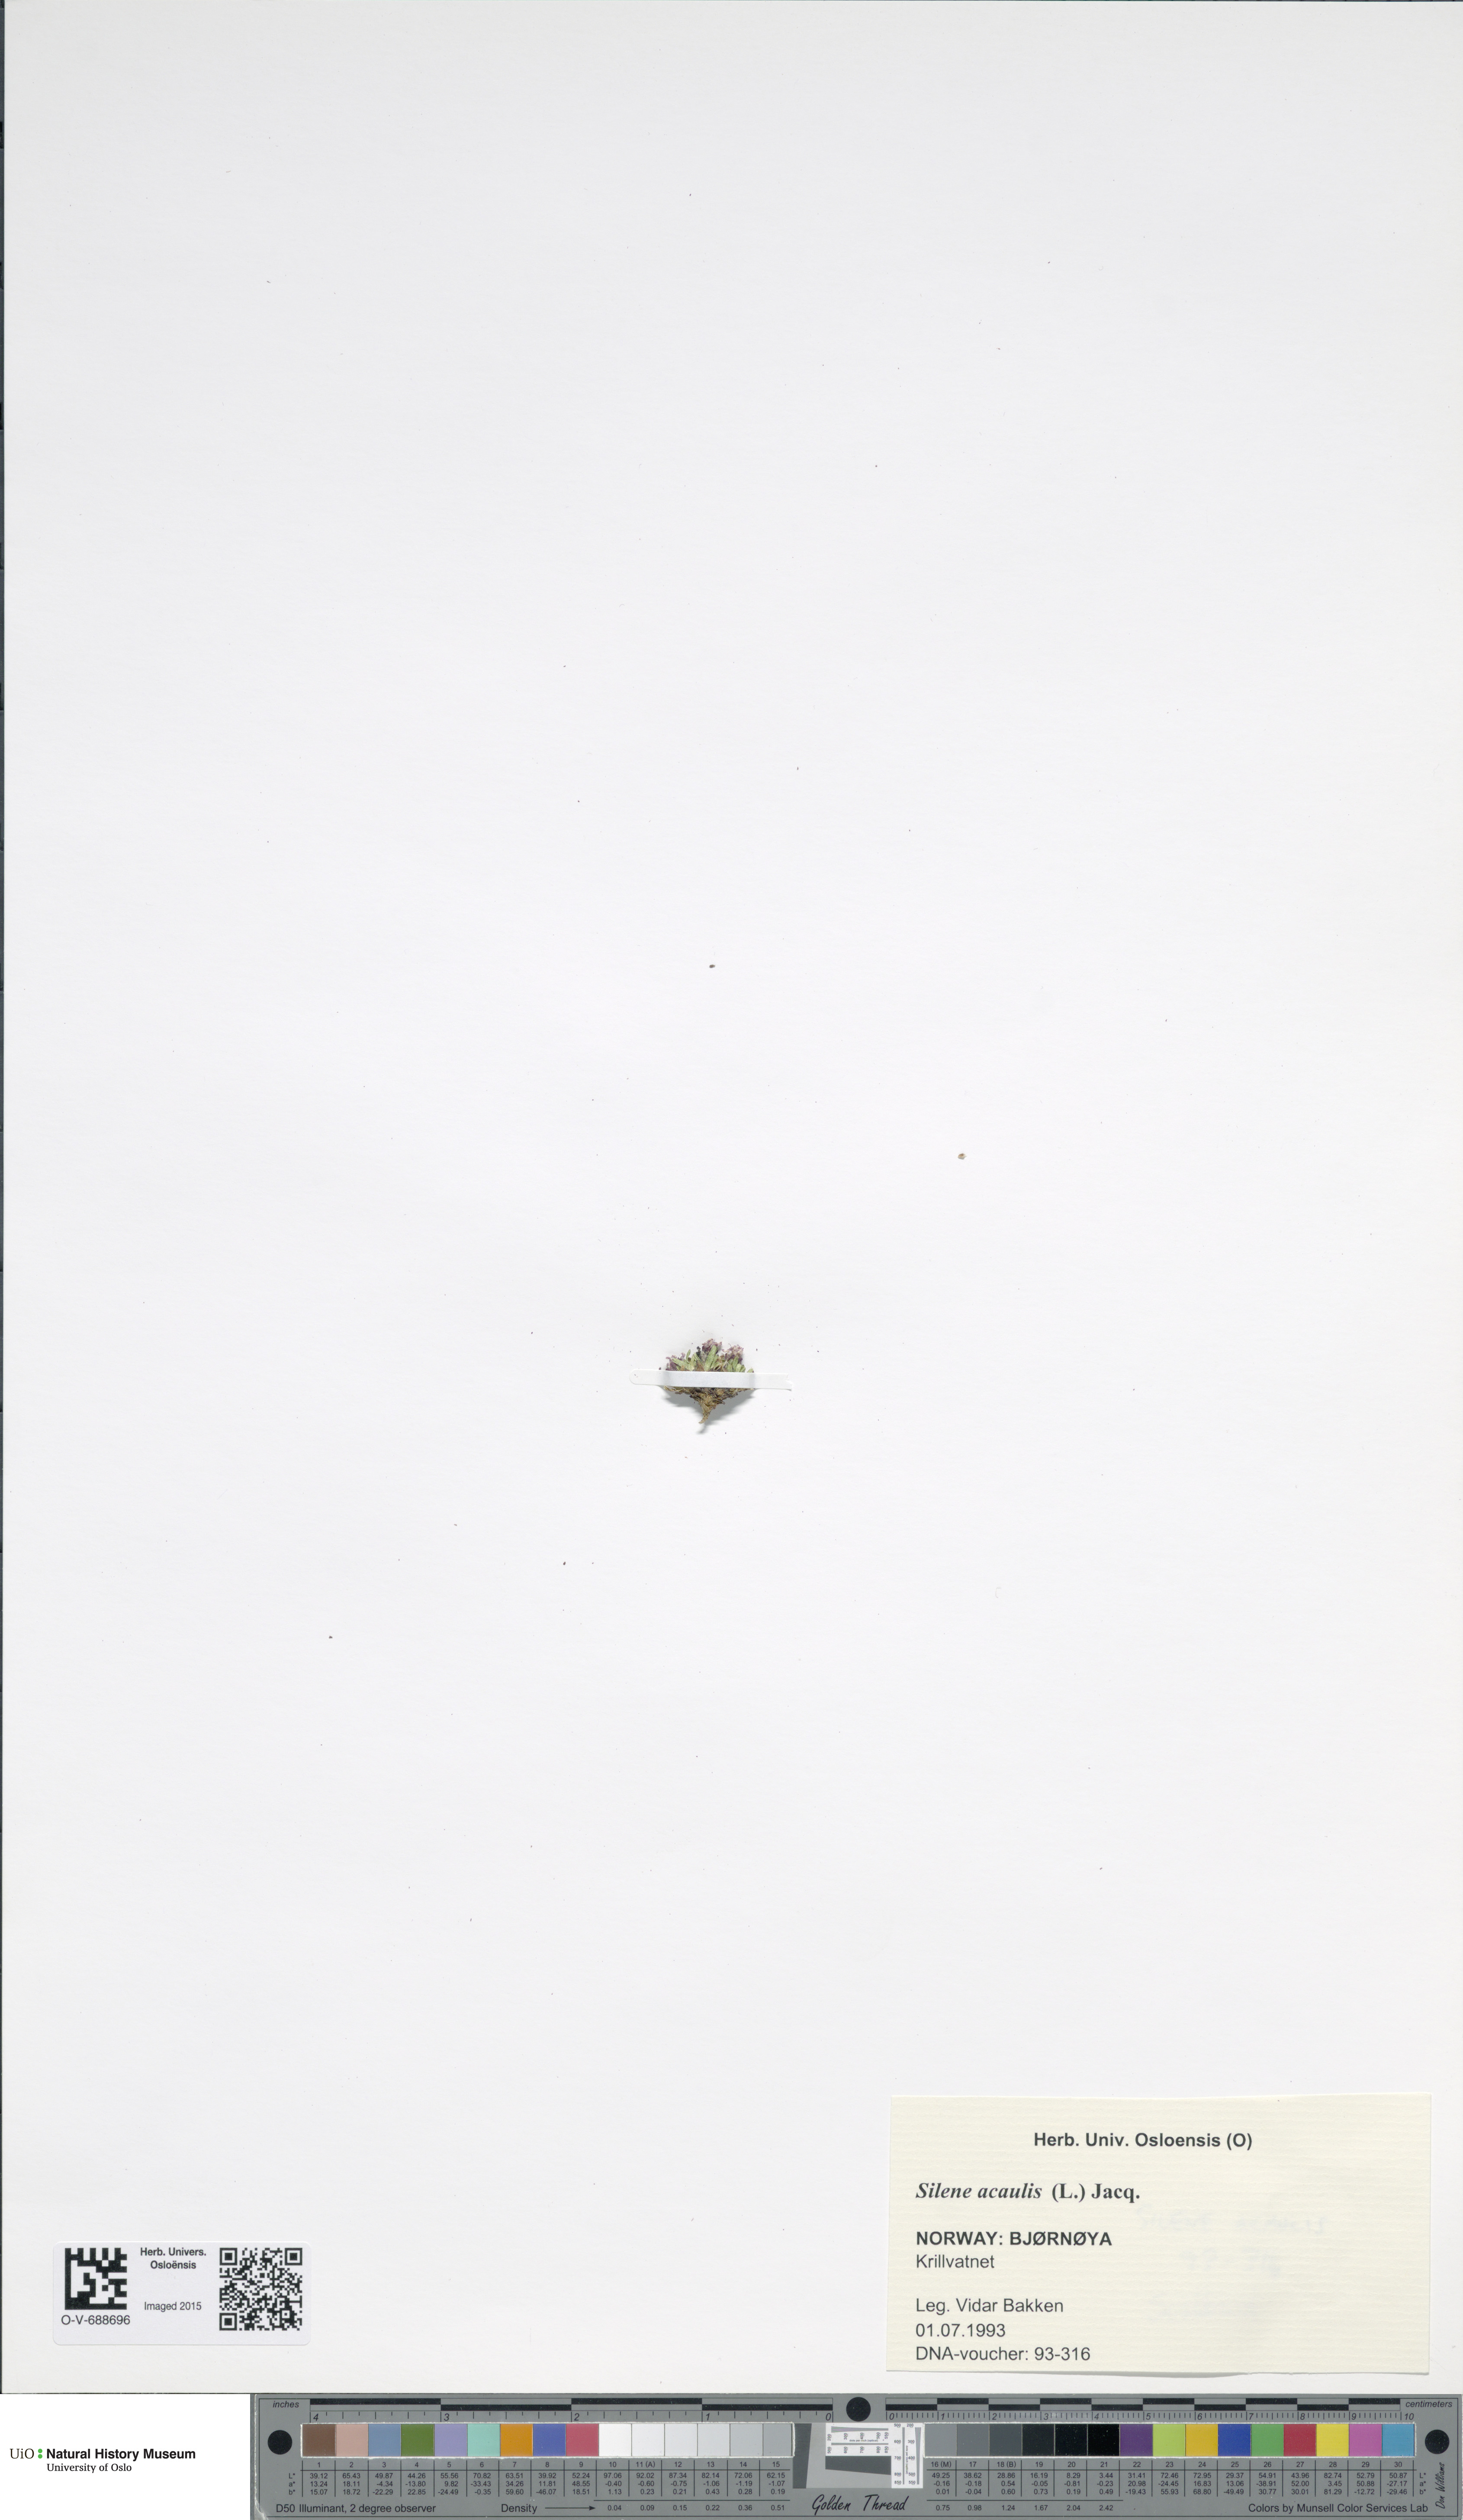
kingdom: Plantae
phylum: Tracheophyta
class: Magnoliopsida
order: Caryophyllales
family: Caryophyllaceae
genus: Silene
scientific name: Silene acaulis
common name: Moss campion
